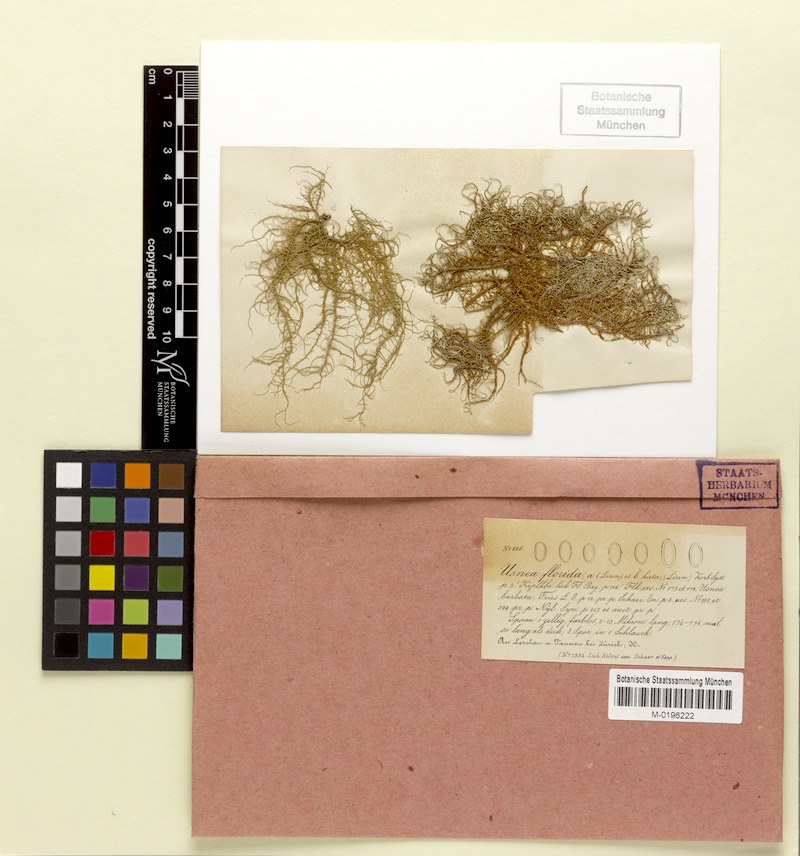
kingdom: Fungi
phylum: Ascomycota
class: Lecanoromycetes
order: Lecanorales
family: Parmeliaceae
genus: Usnea
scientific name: Usnea hirta
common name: Bristly beard lichen
